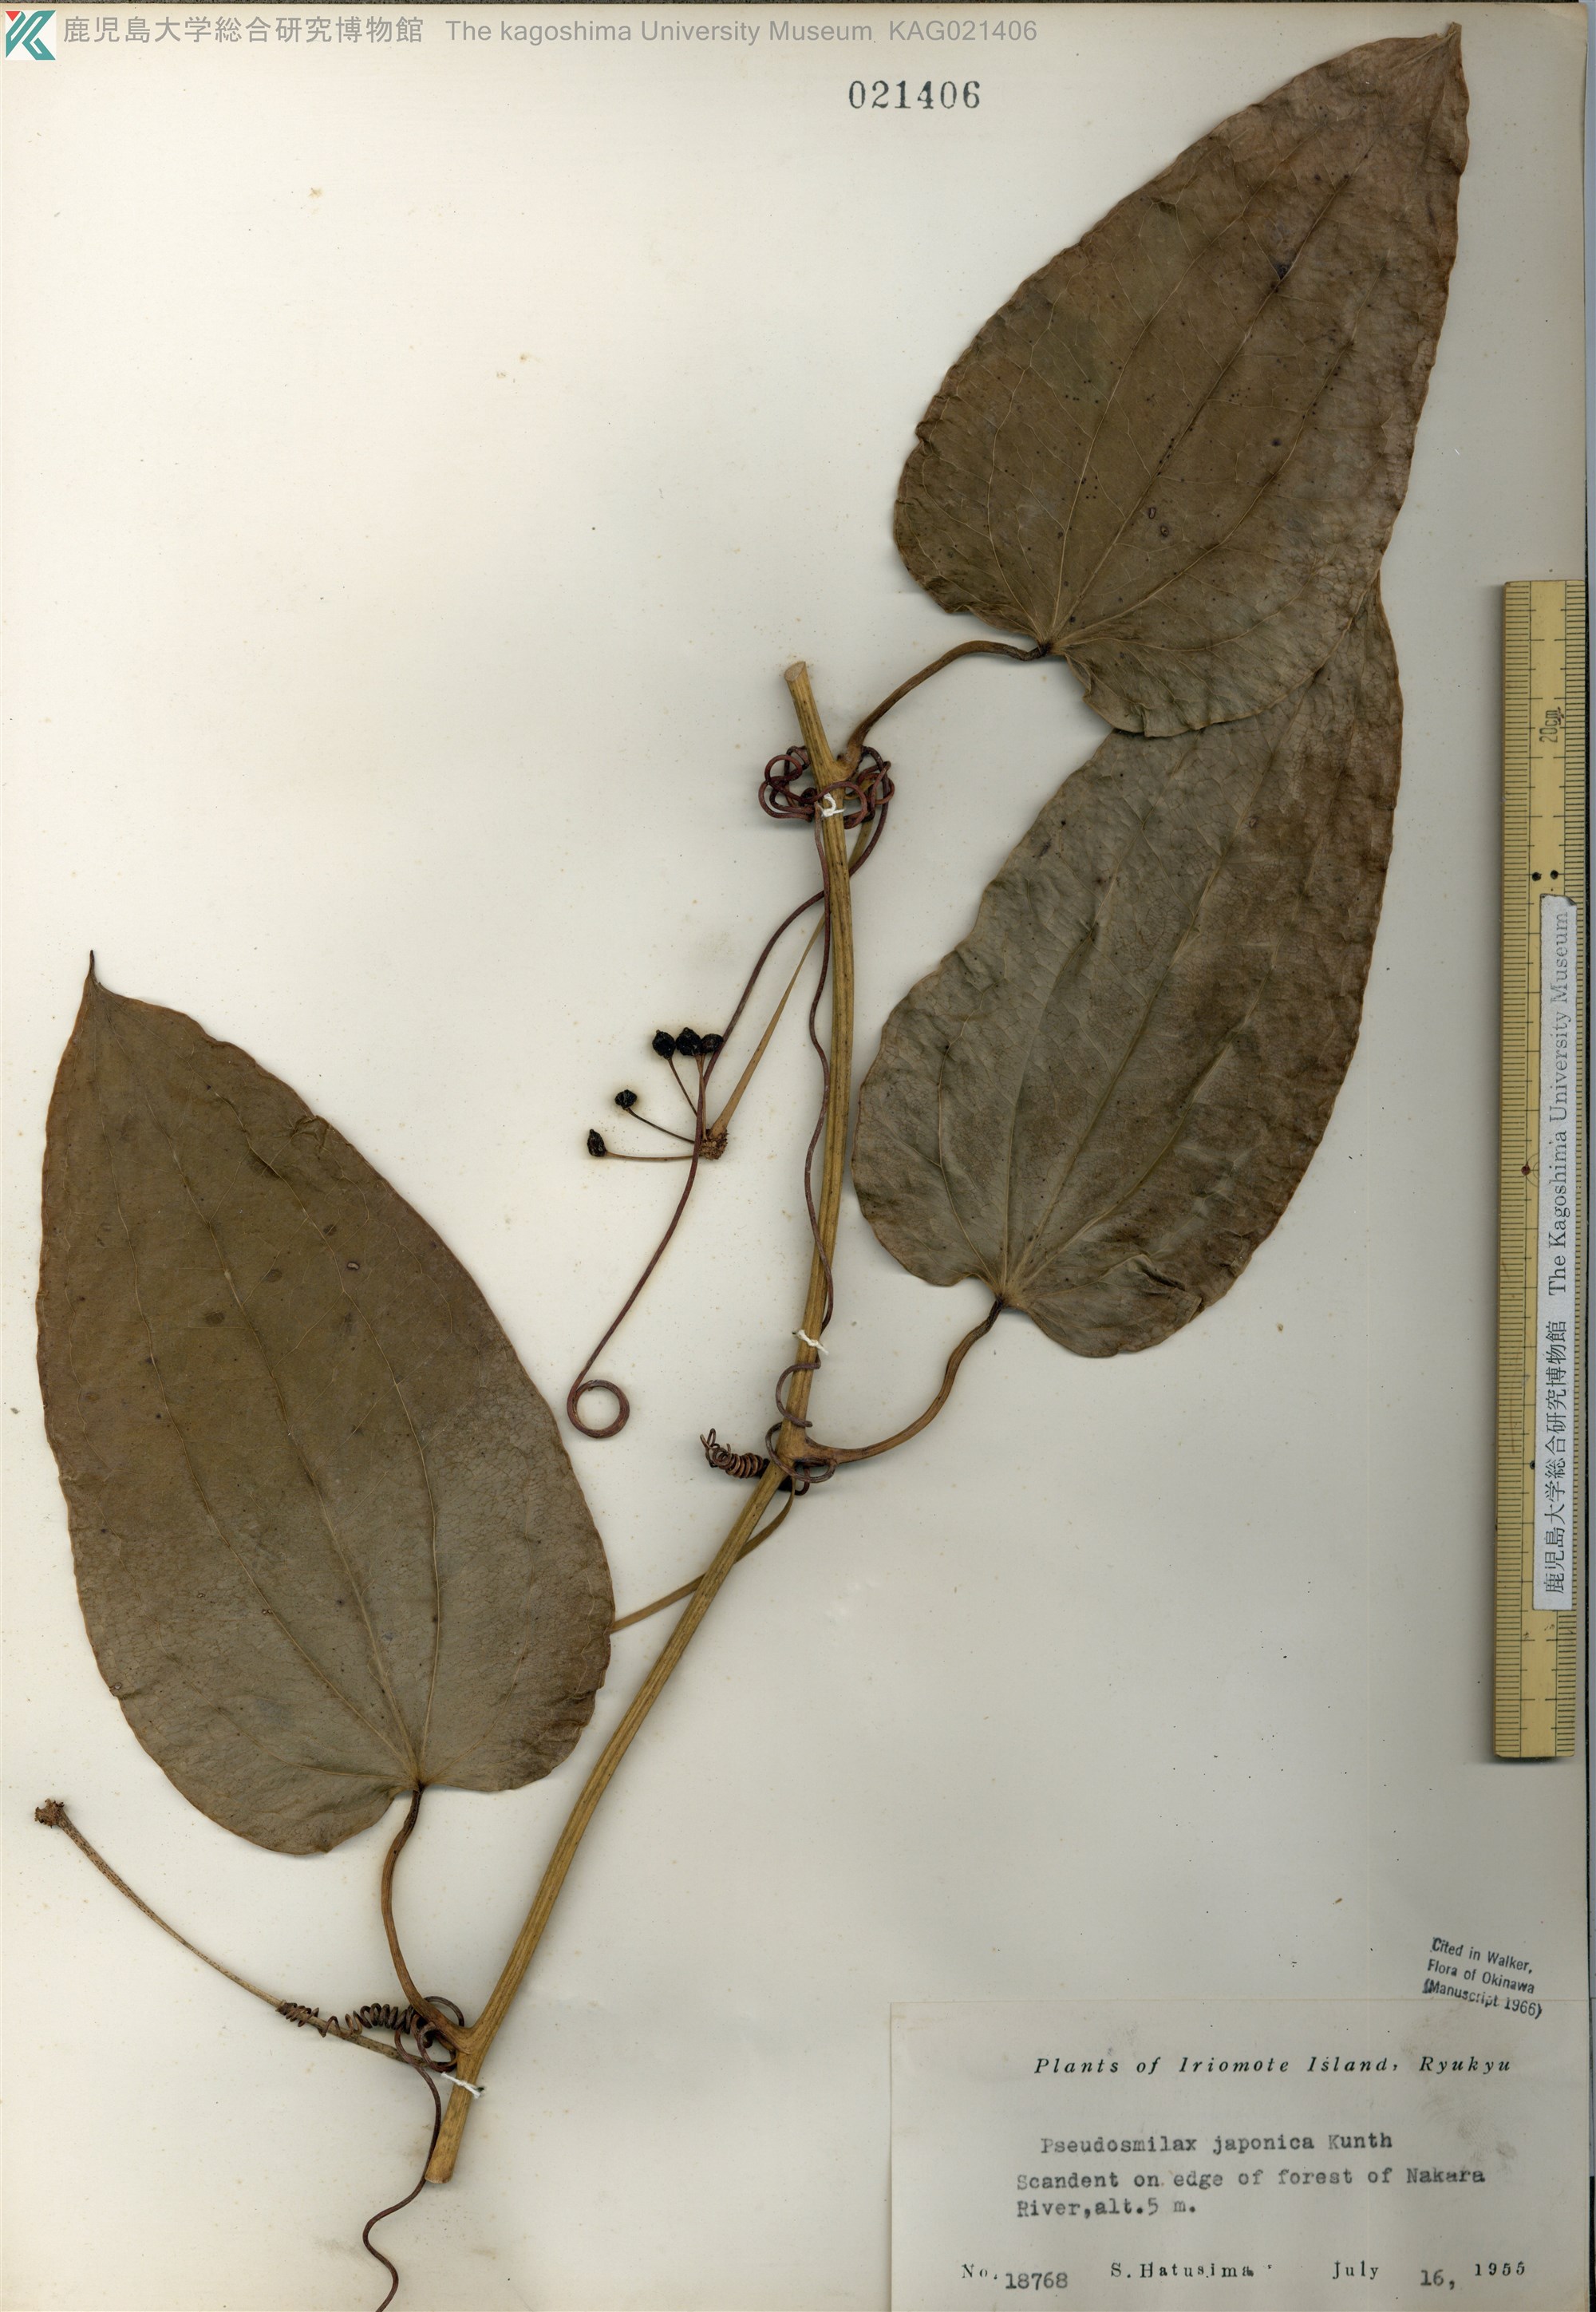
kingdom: Plantae
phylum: Tracheophyta
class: Liliopsida
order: Liliales
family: Smilacaceae
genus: Smilax
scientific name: Smilax insularis
